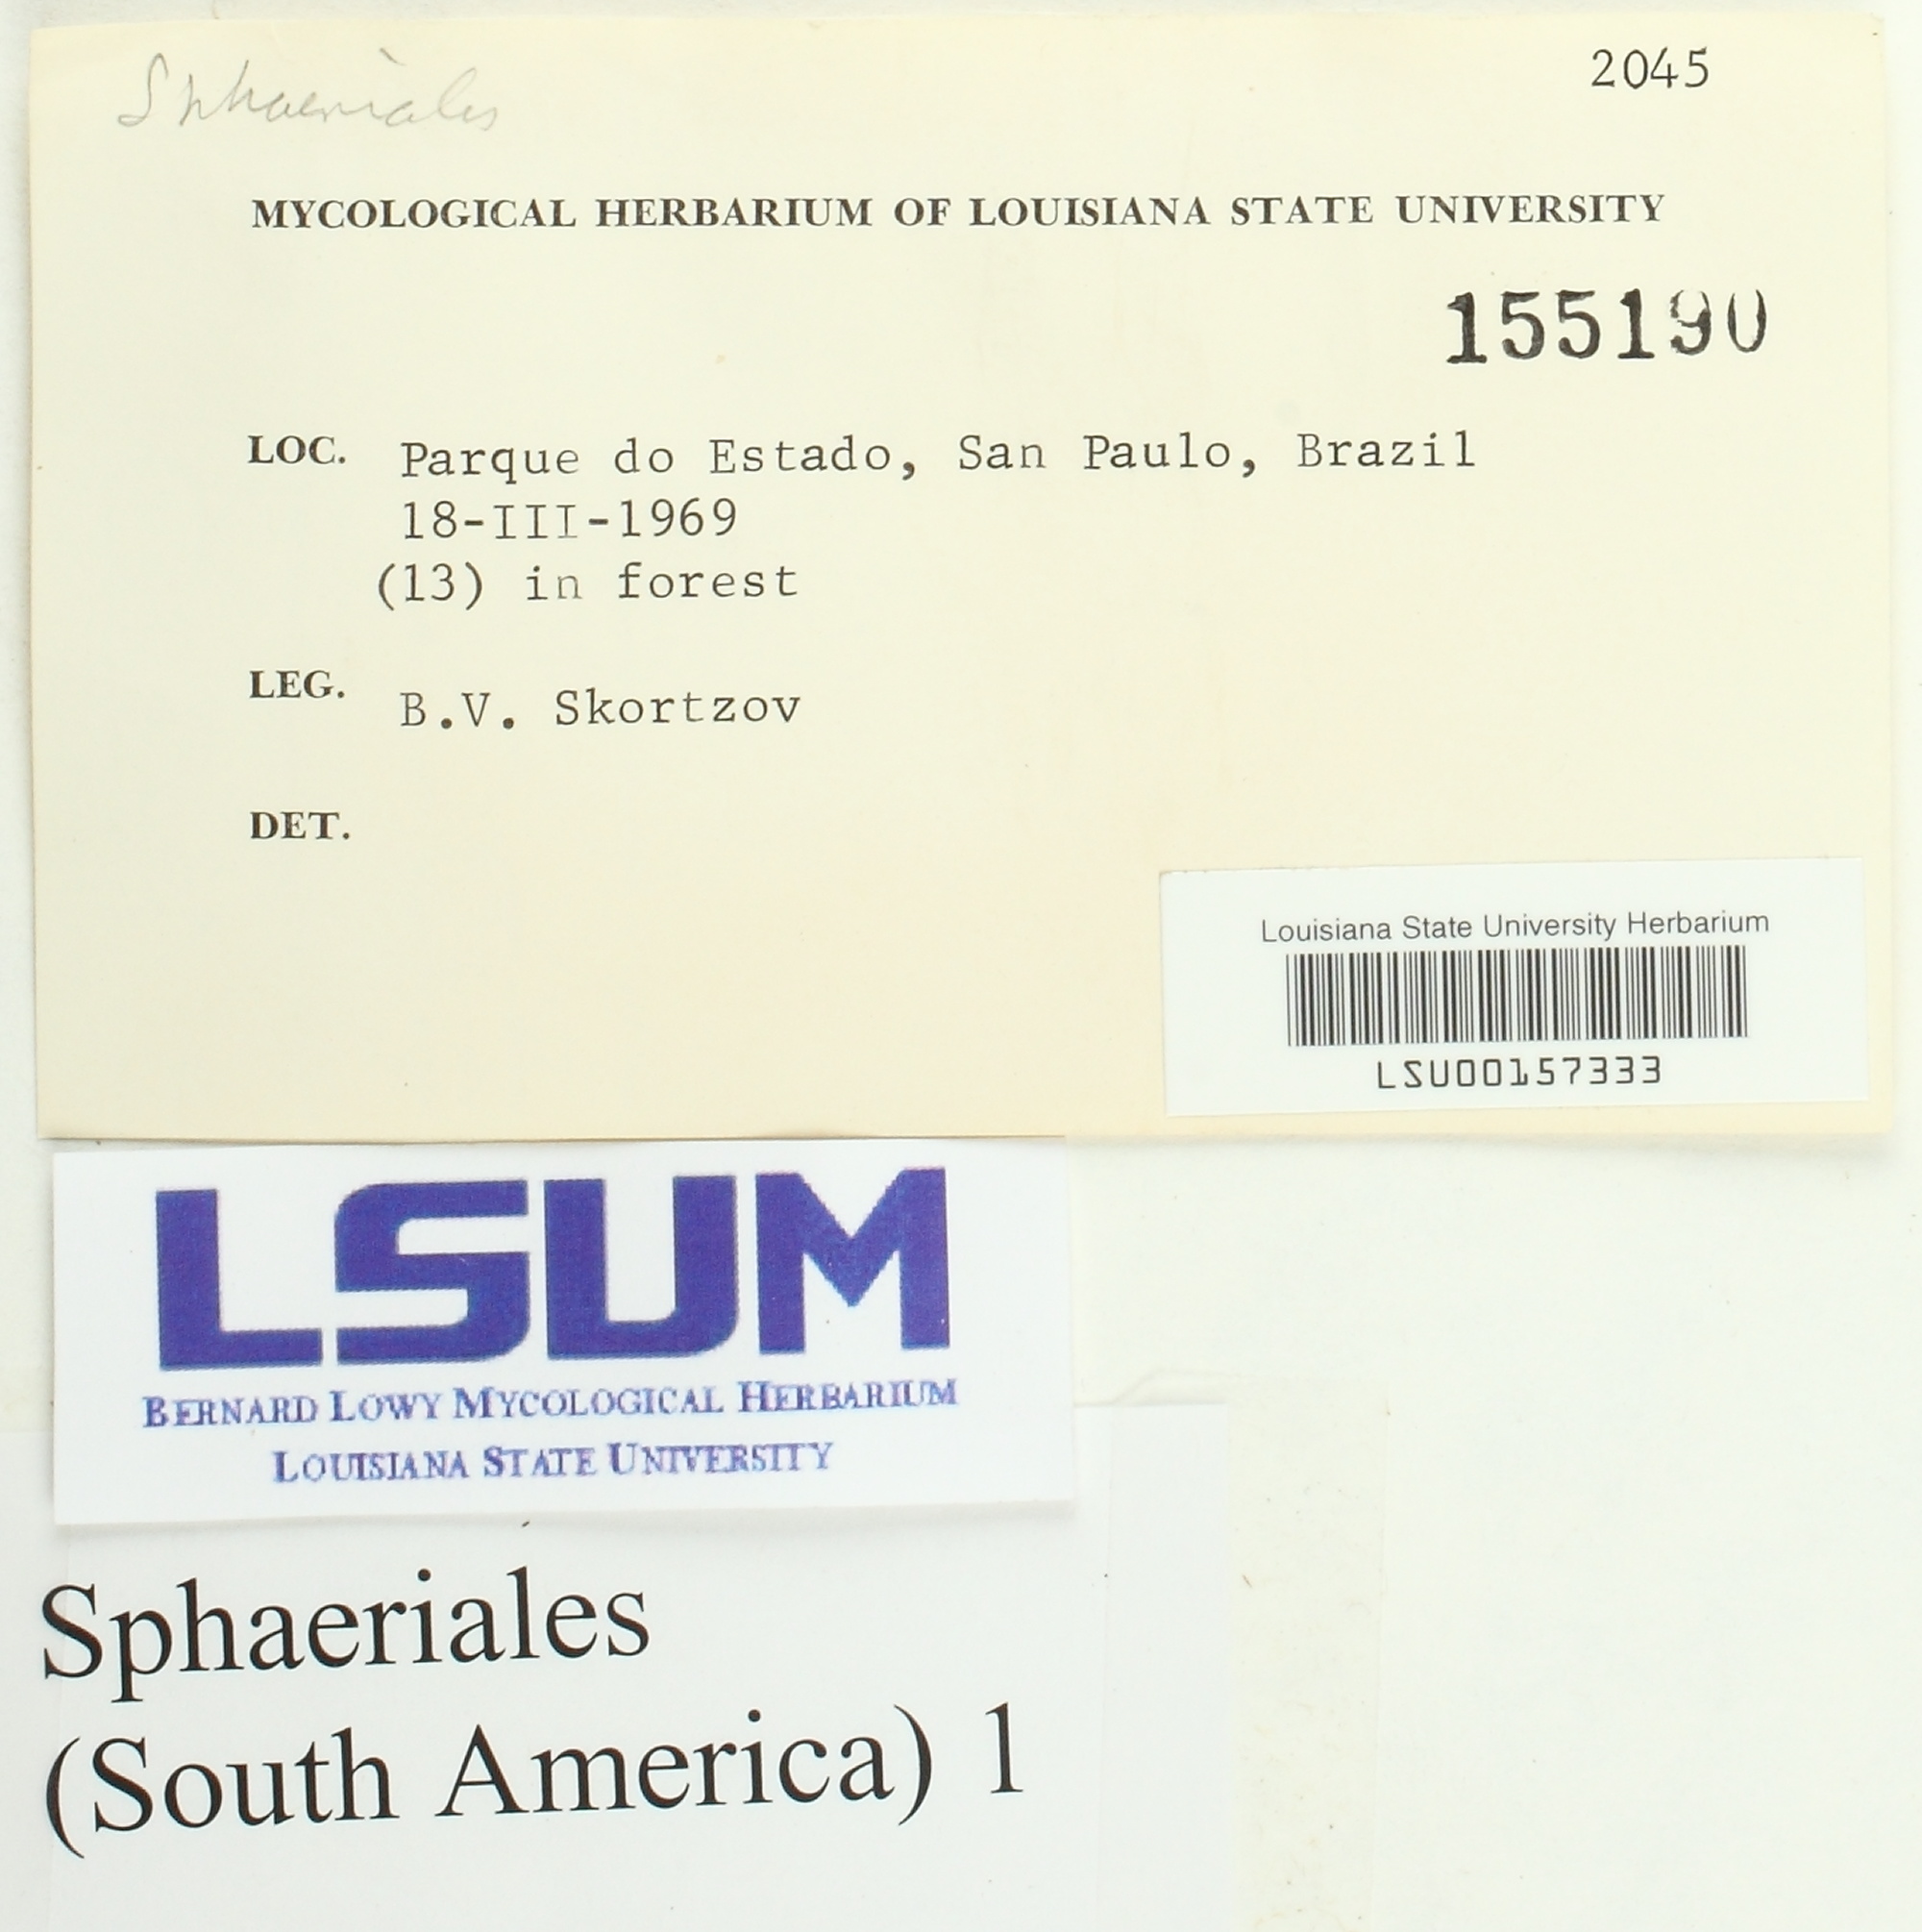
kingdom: Fungi
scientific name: Fungi
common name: Fungi
